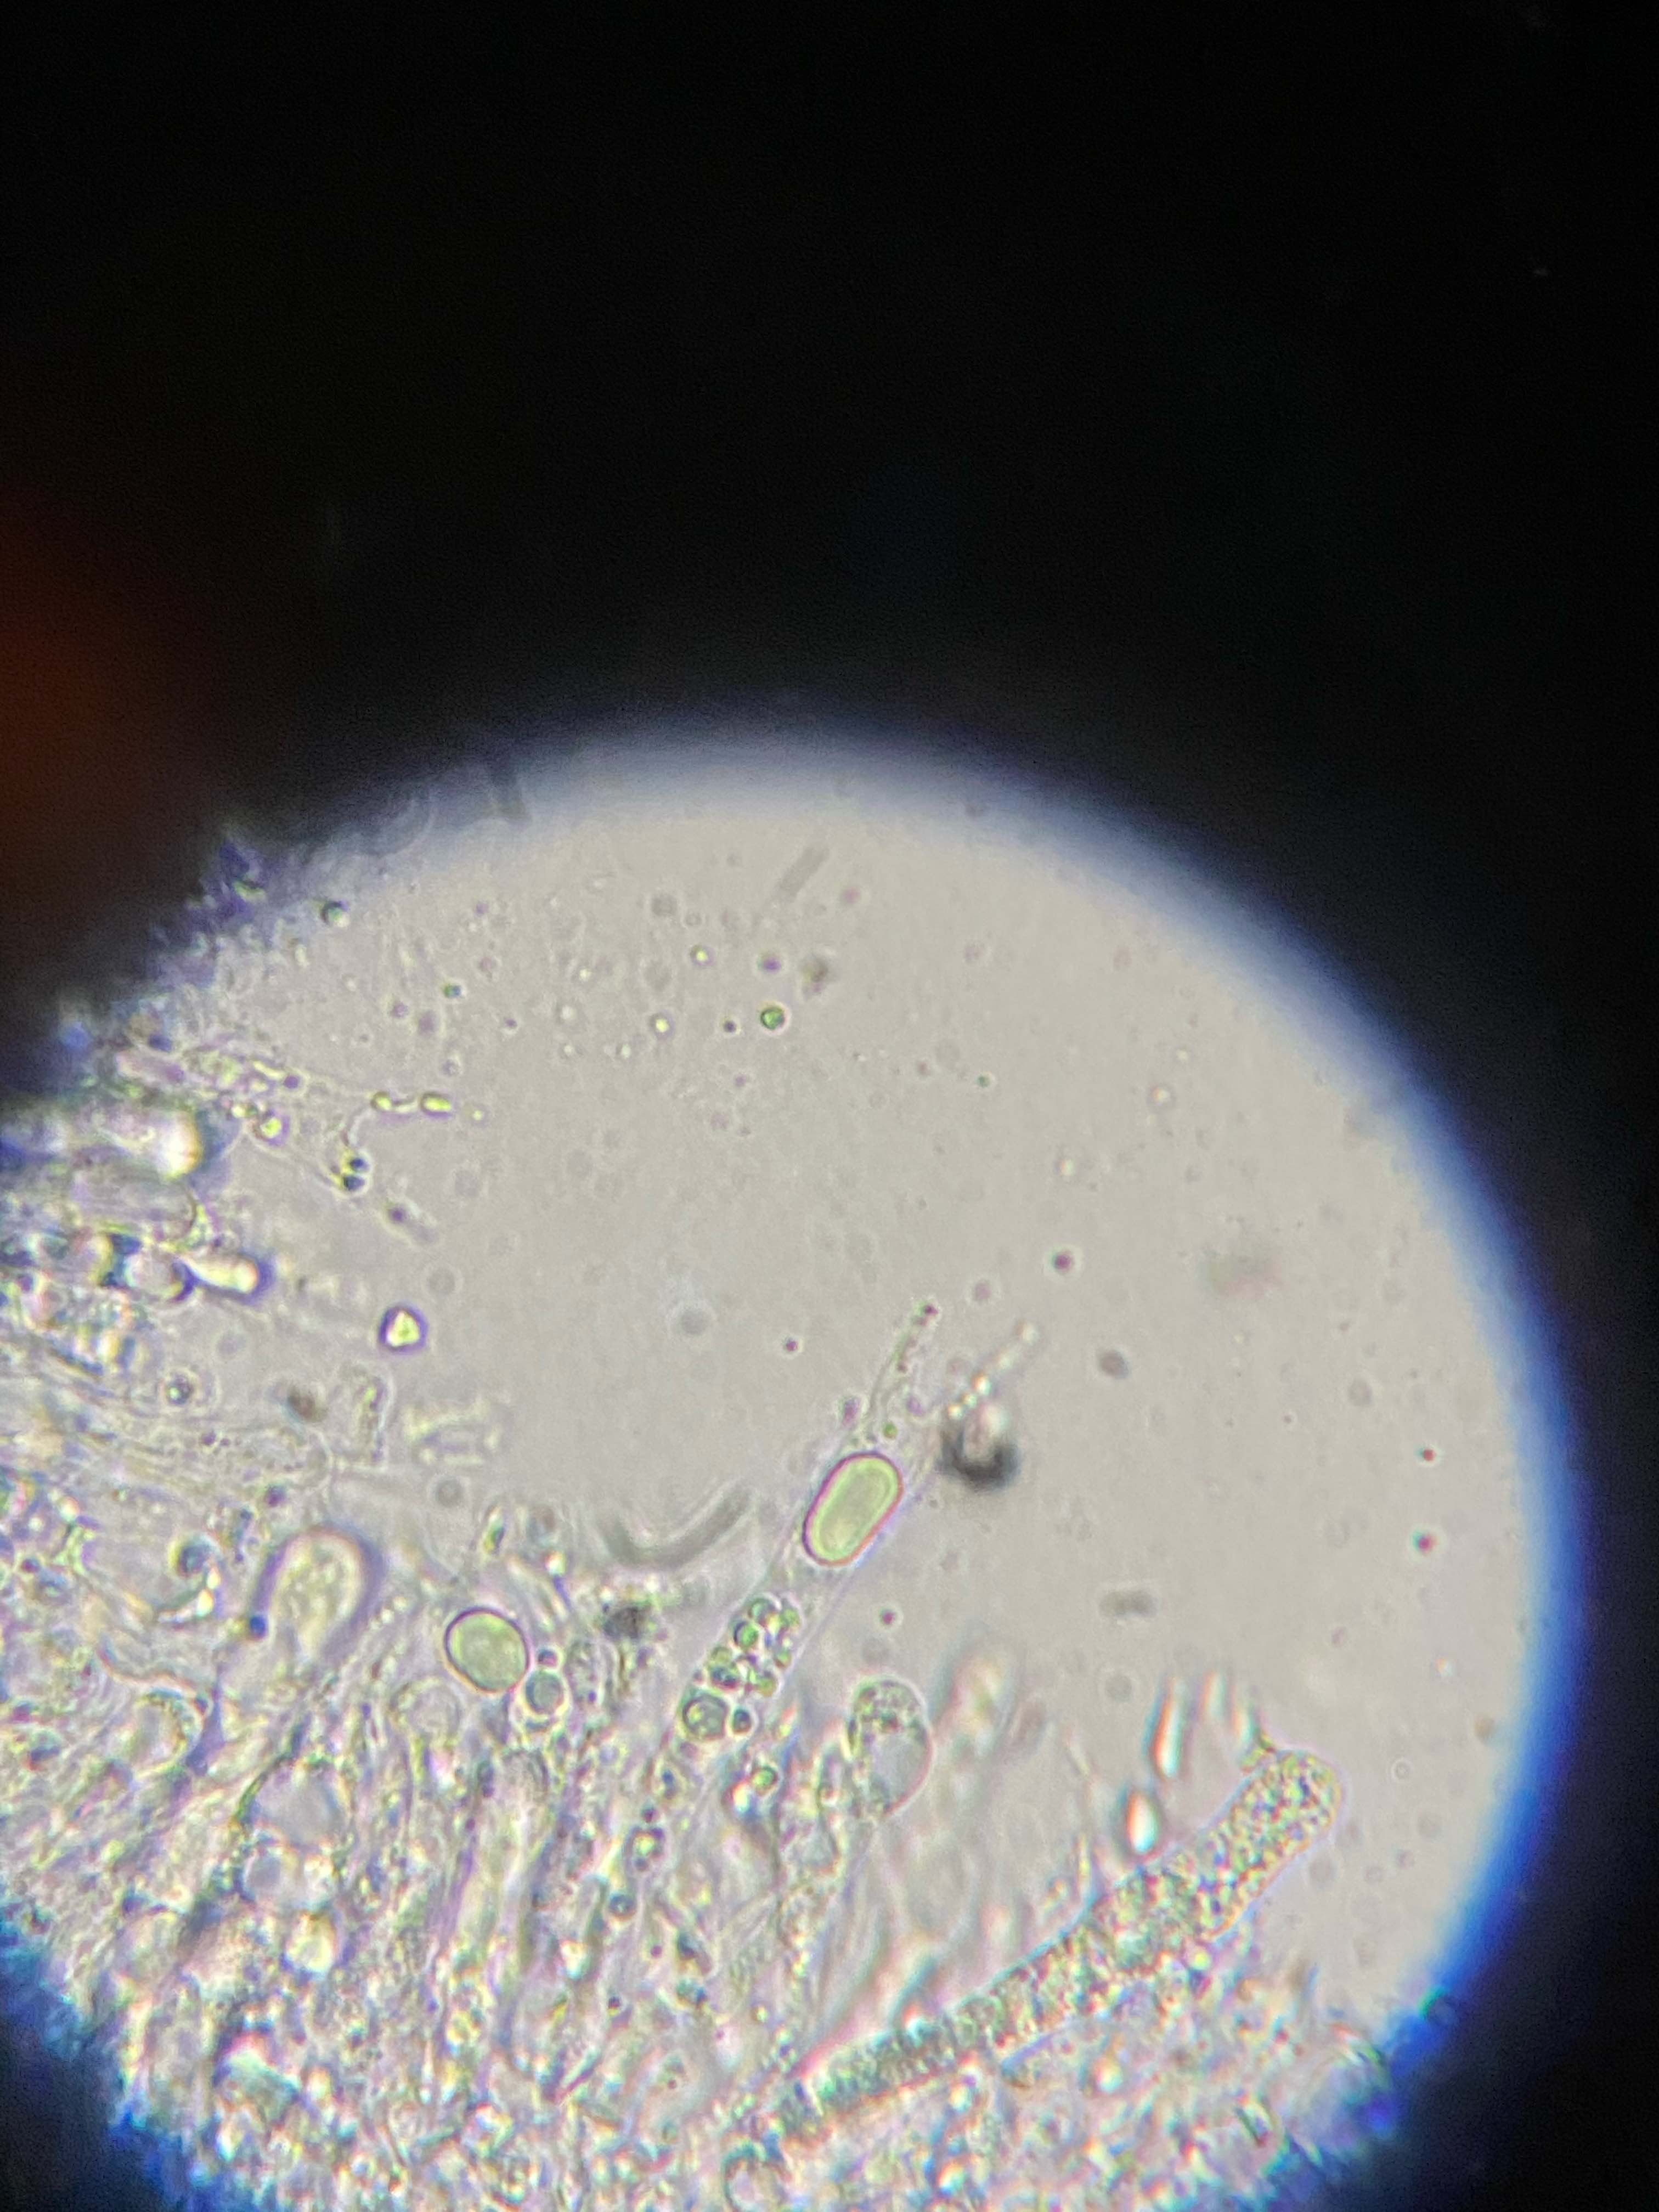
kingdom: Fungi
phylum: Basidiomycota
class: Agaricomycetes
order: Agaricales
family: Mycenaceae
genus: Mycena
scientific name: Mycena galericulata
